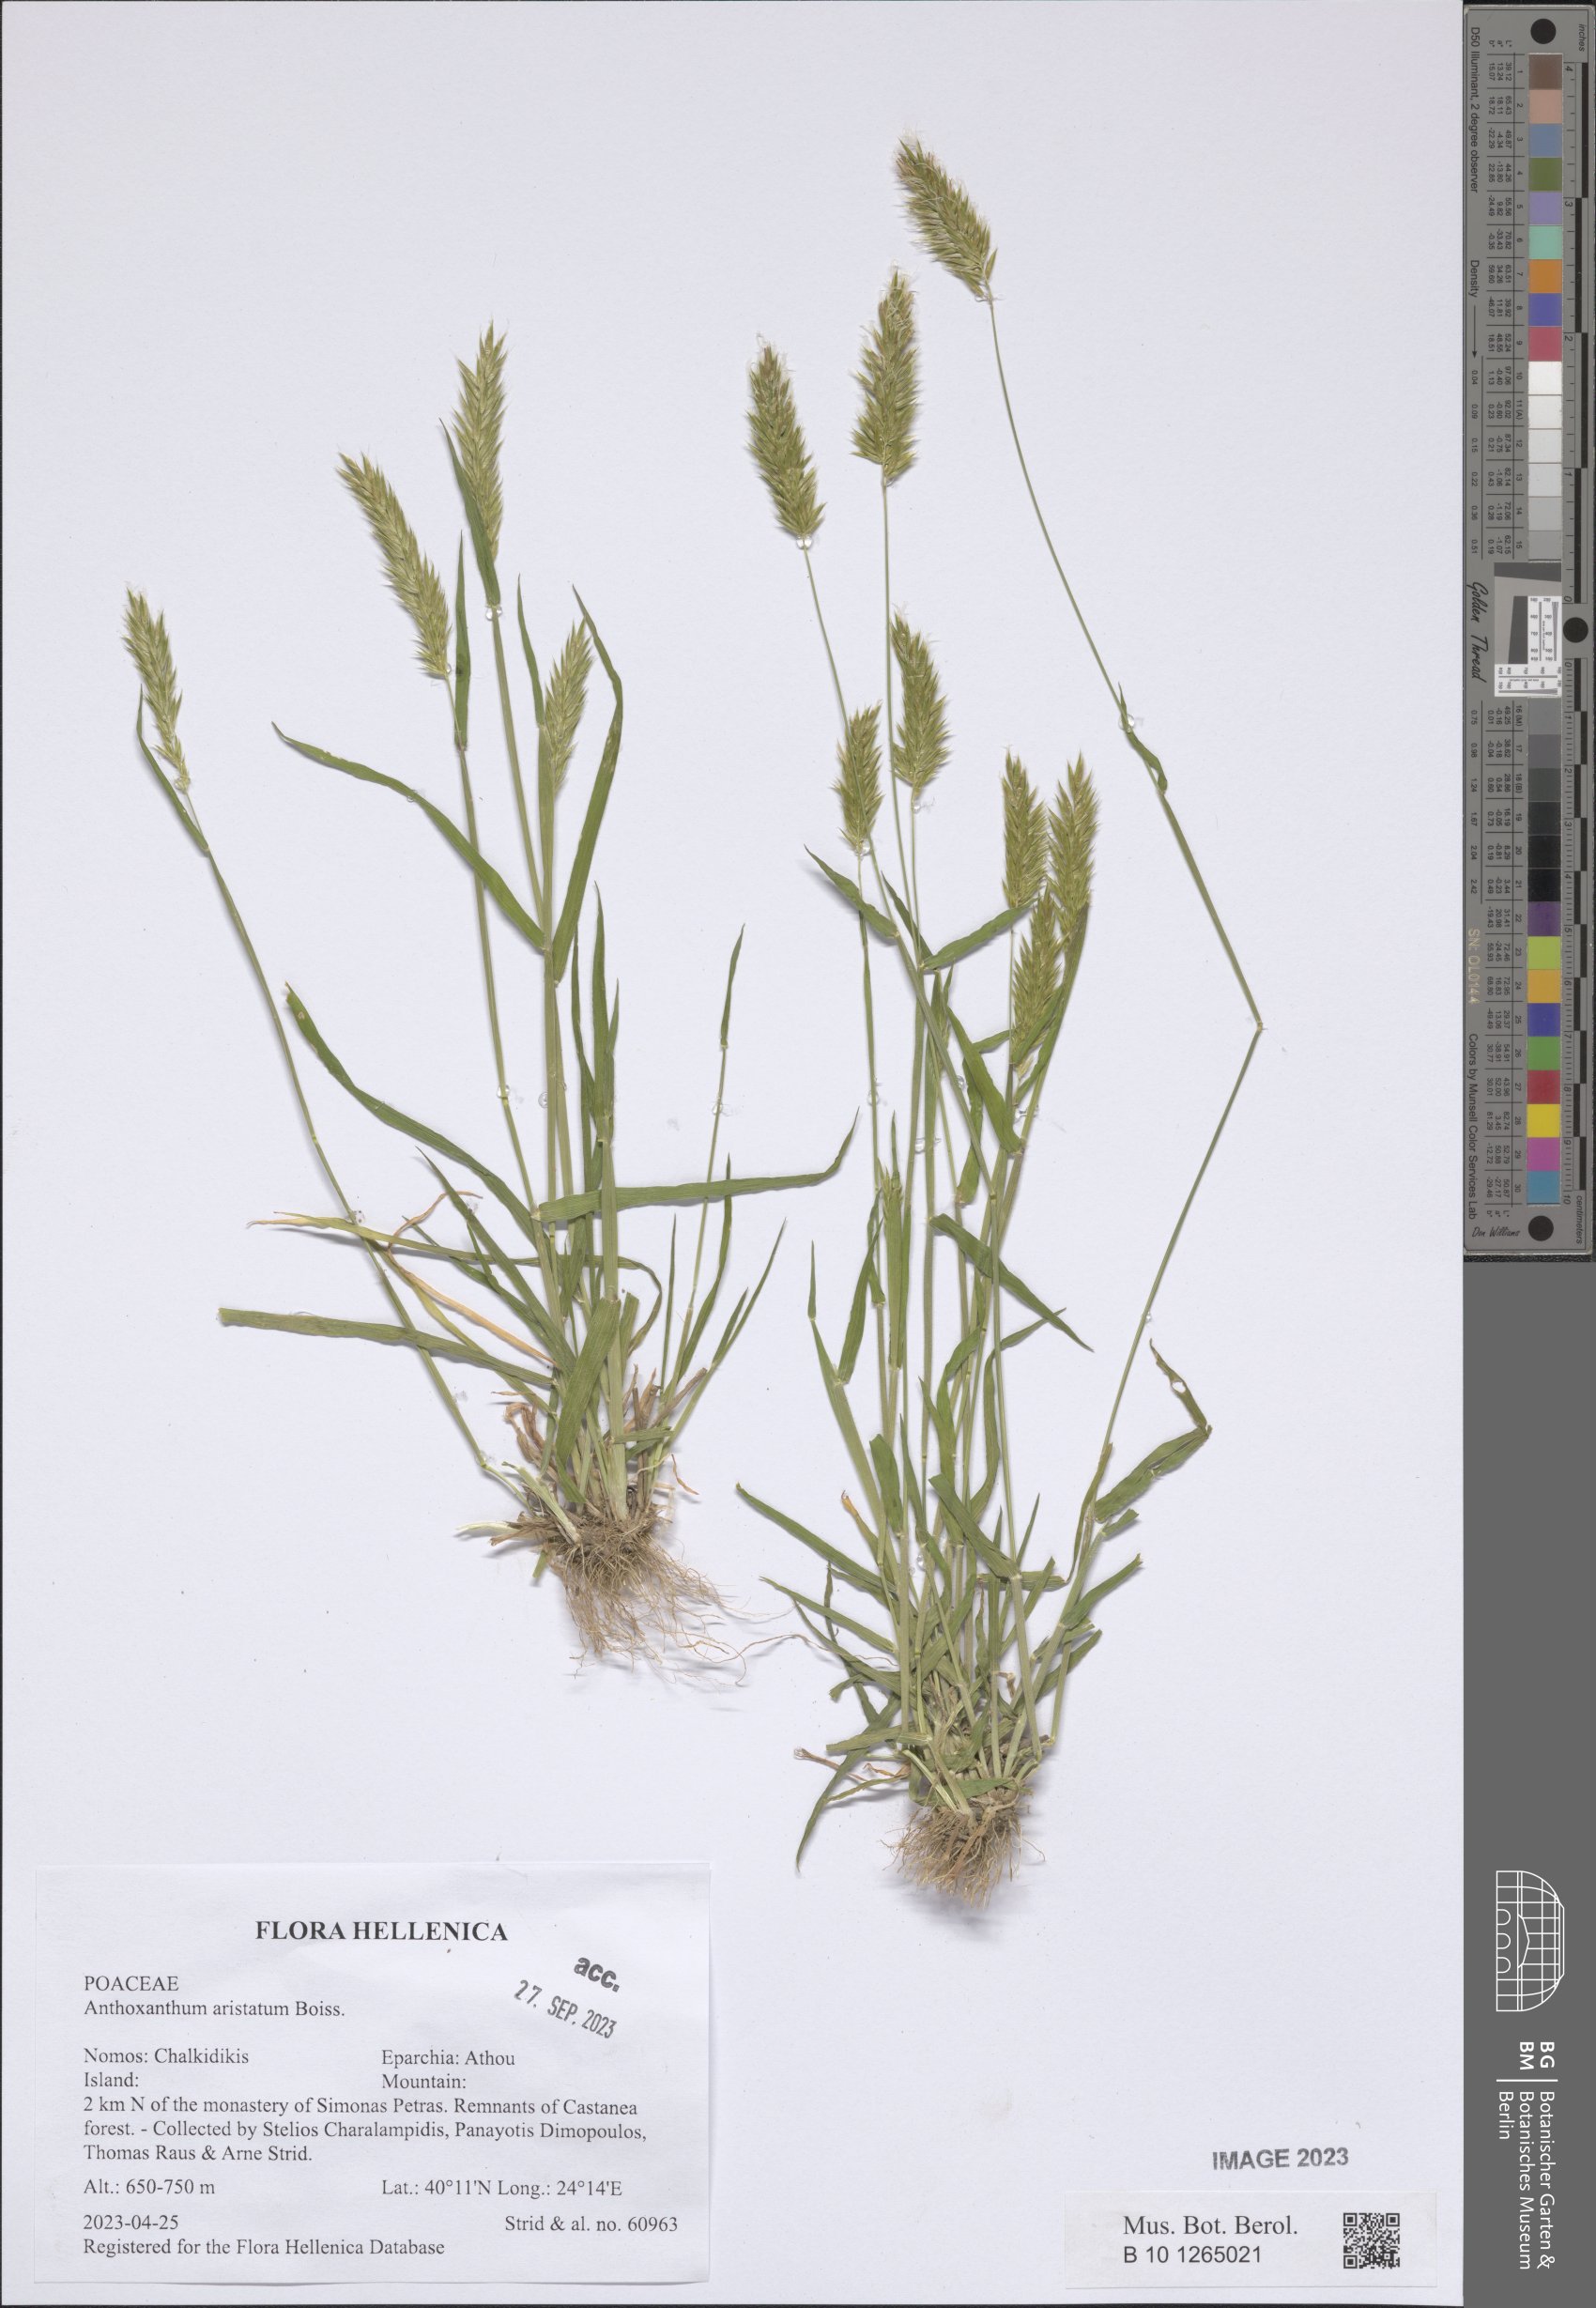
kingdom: Plantae
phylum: Tracheophyta
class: Liliopsida
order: Poales
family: Poaceae
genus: Anthoxanthum
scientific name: Anthoxanthum aristatum
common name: Annual vernal-grass
